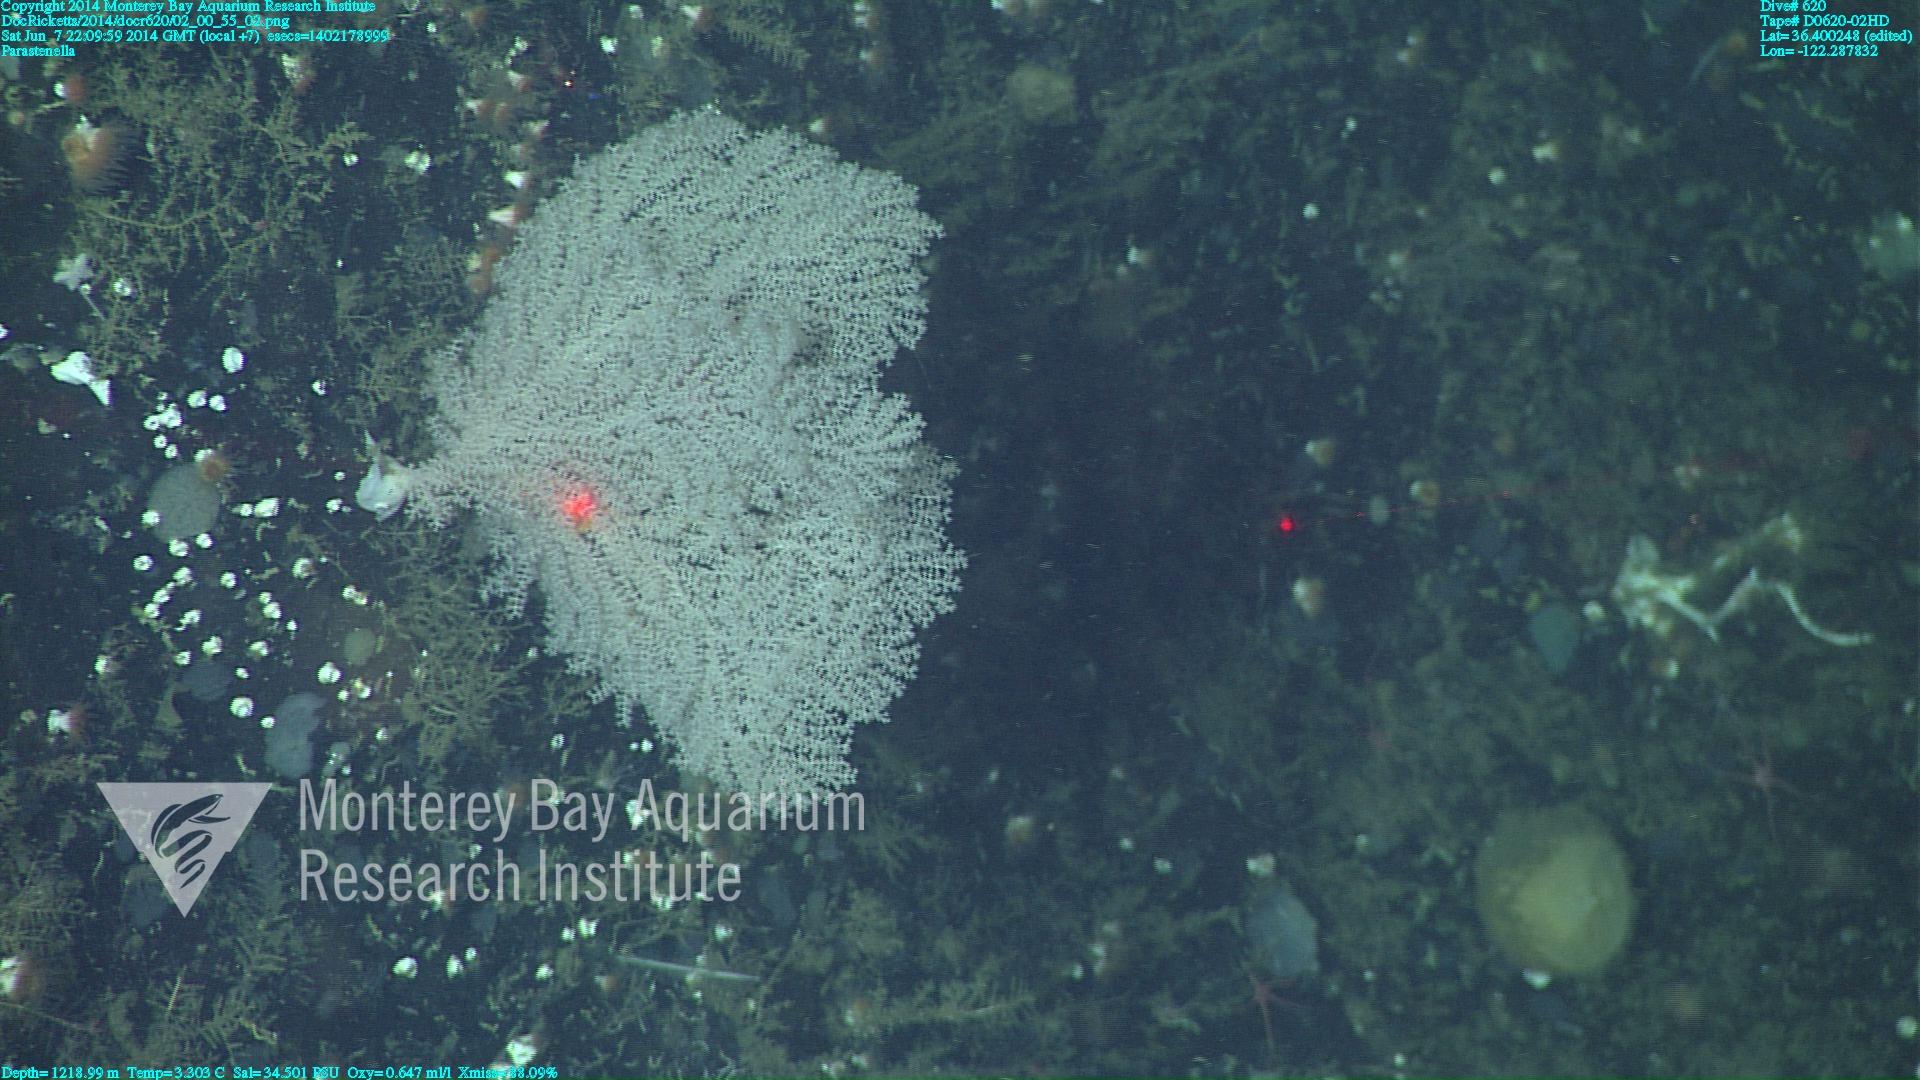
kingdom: Animalia
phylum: Cnidaria
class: Anthozoa
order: Scleralcyonacea
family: Primnoidae
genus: Parastenella
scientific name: Parastenella
